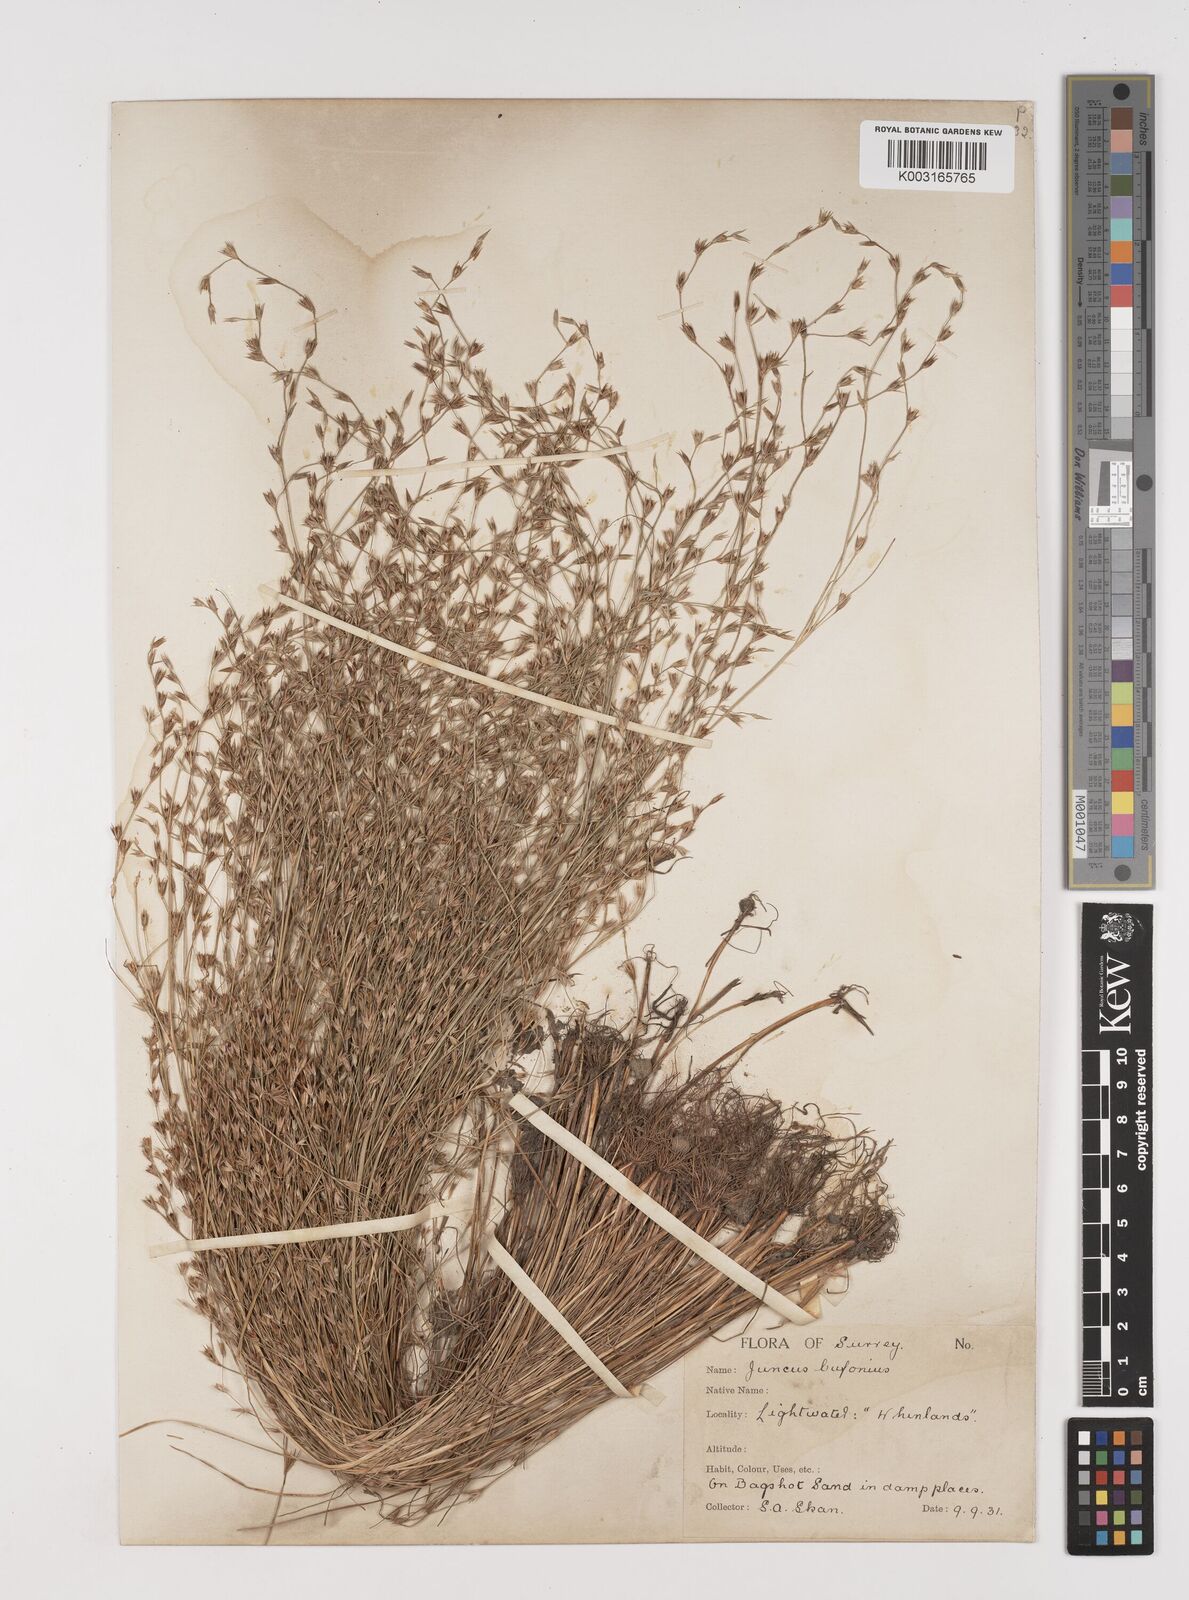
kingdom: Plantae
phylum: Tracheophyta
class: Liliopsida
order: Poales
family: Juncaceae
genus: Juncus
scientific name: Juncus bufonius
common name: Toad rush
